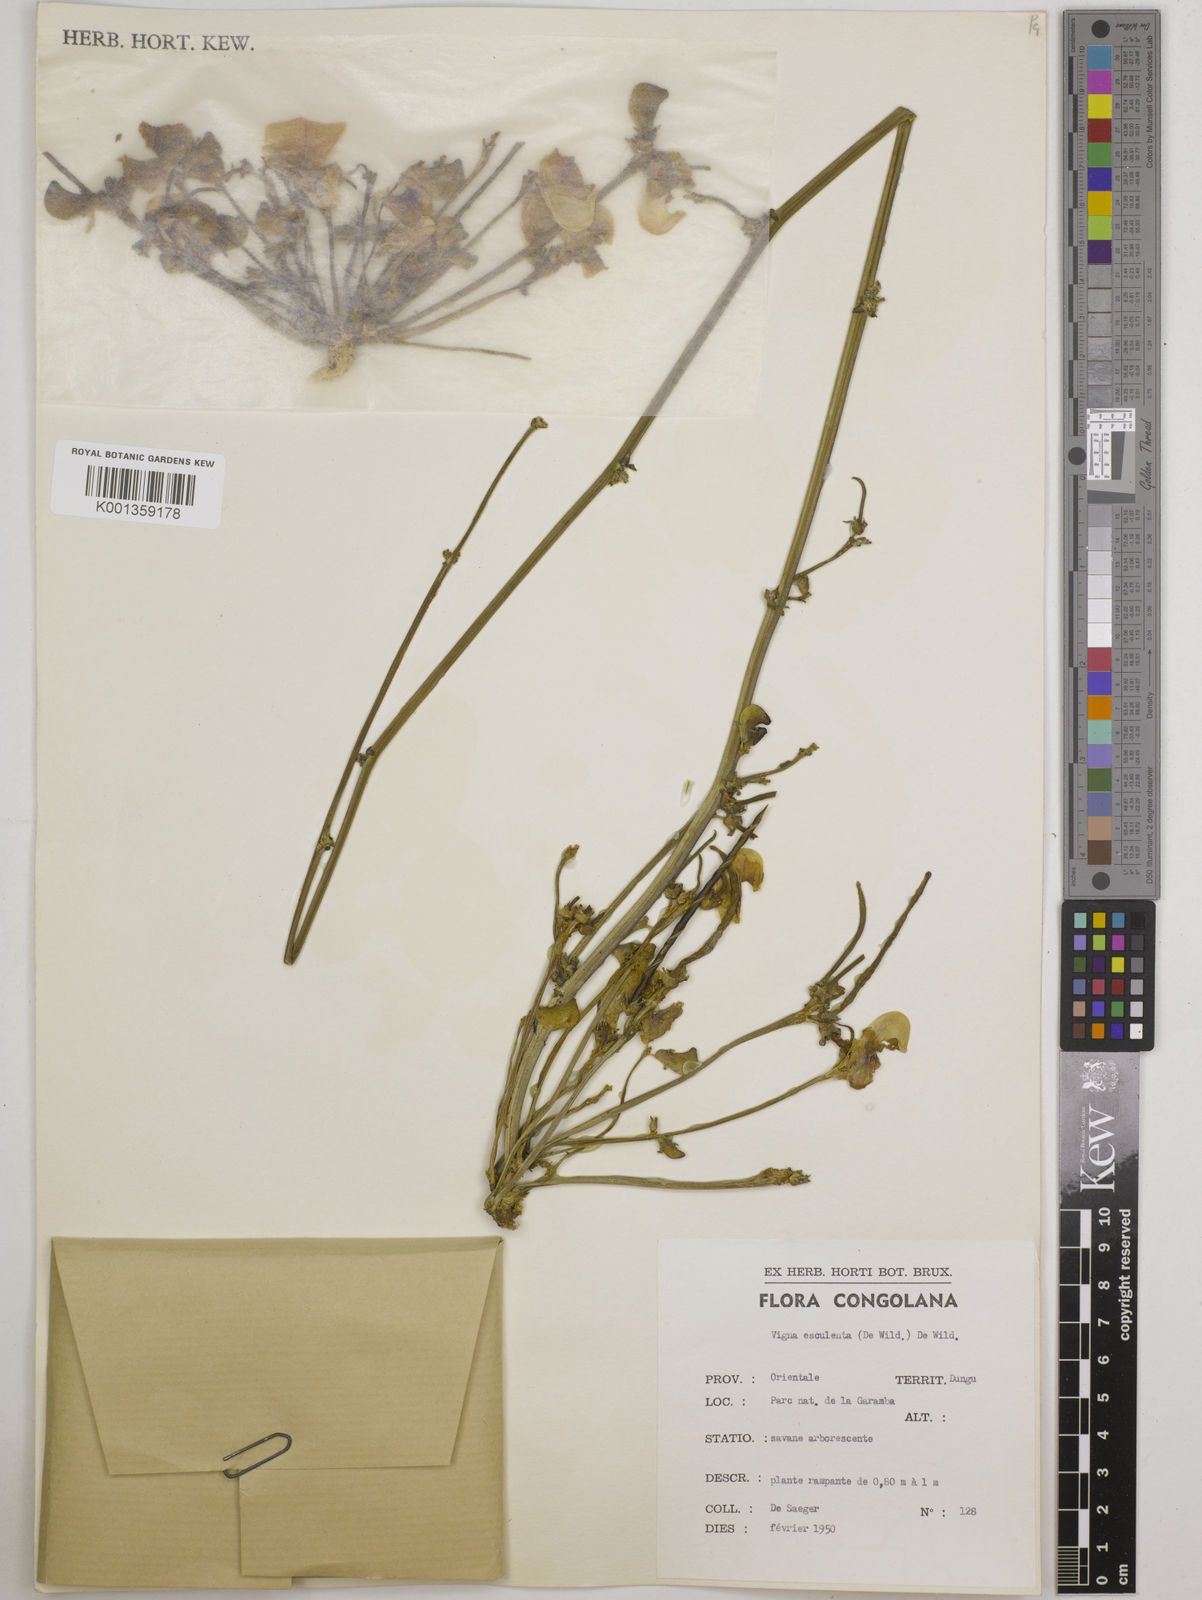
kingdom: Plantae
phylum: Tracheophyta
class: Magnoliopsida
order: Fabales
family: Fabaceae
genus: Vigna
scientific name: Vigna frutescens
